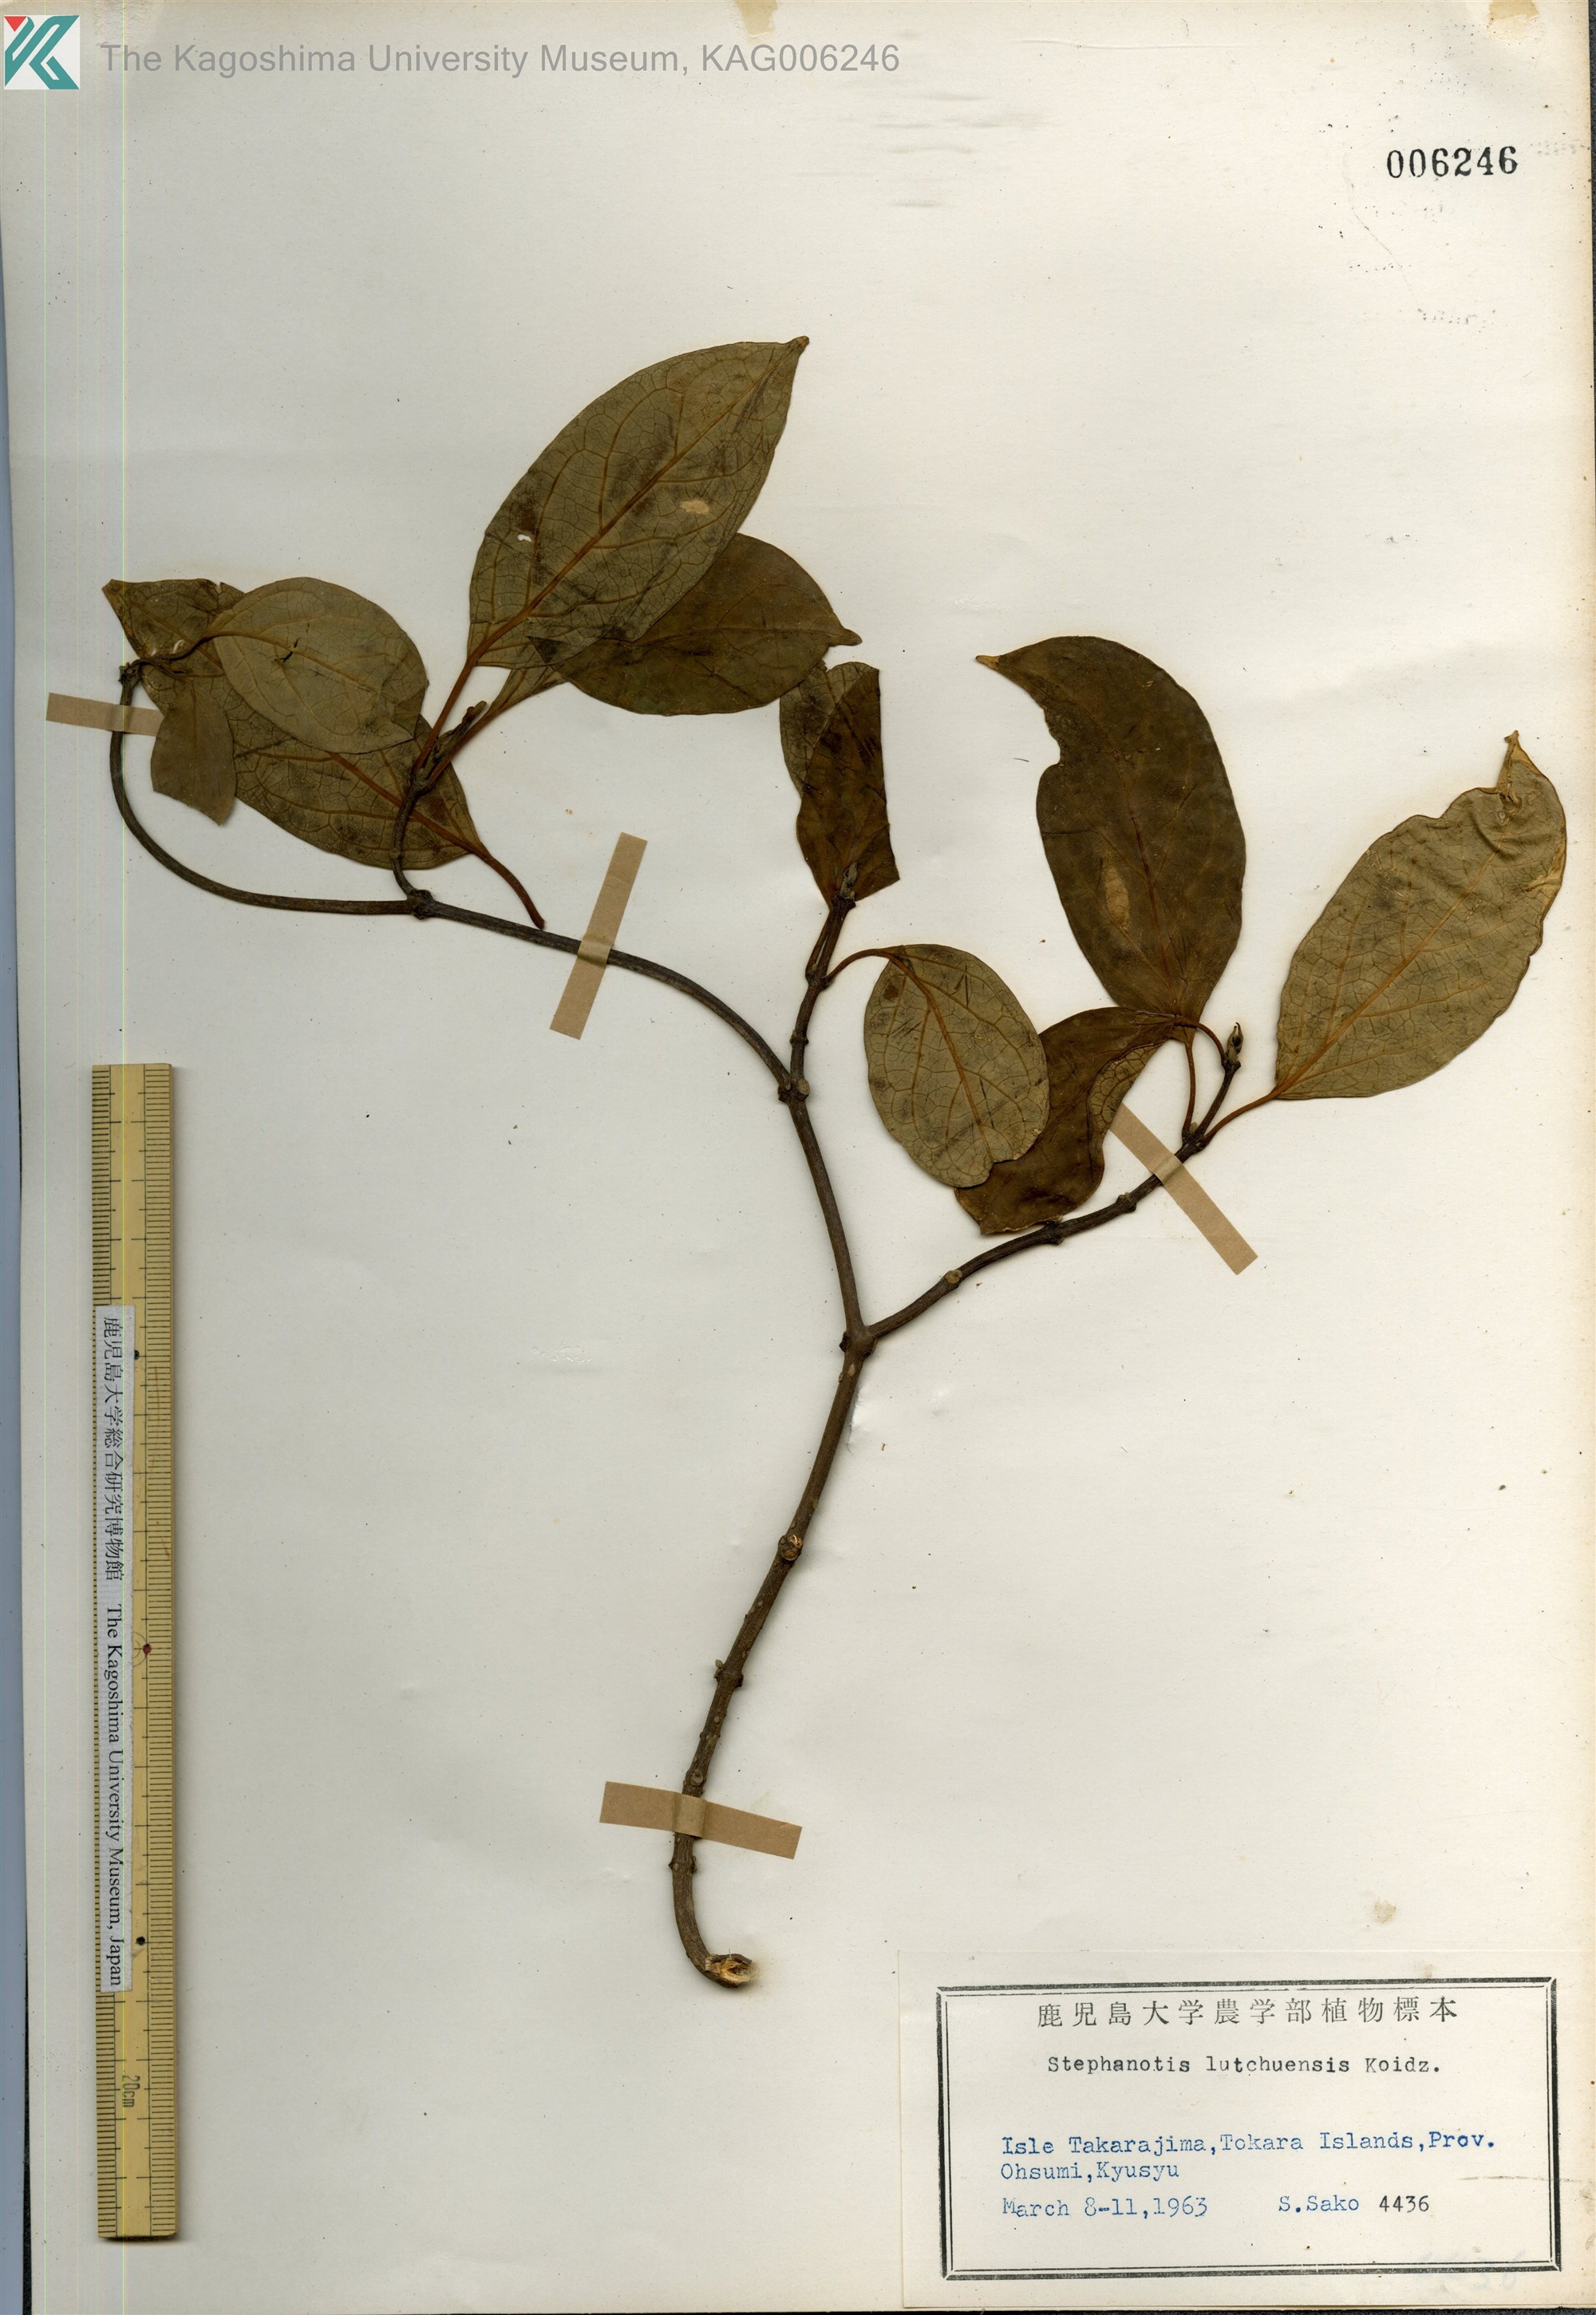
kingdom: Plantae
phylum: Tracheophyta
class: Magnoliopsida
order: Gentianales
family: Apocynaceae
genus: Jasminanthes
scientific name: Jasminanthes mucronata
